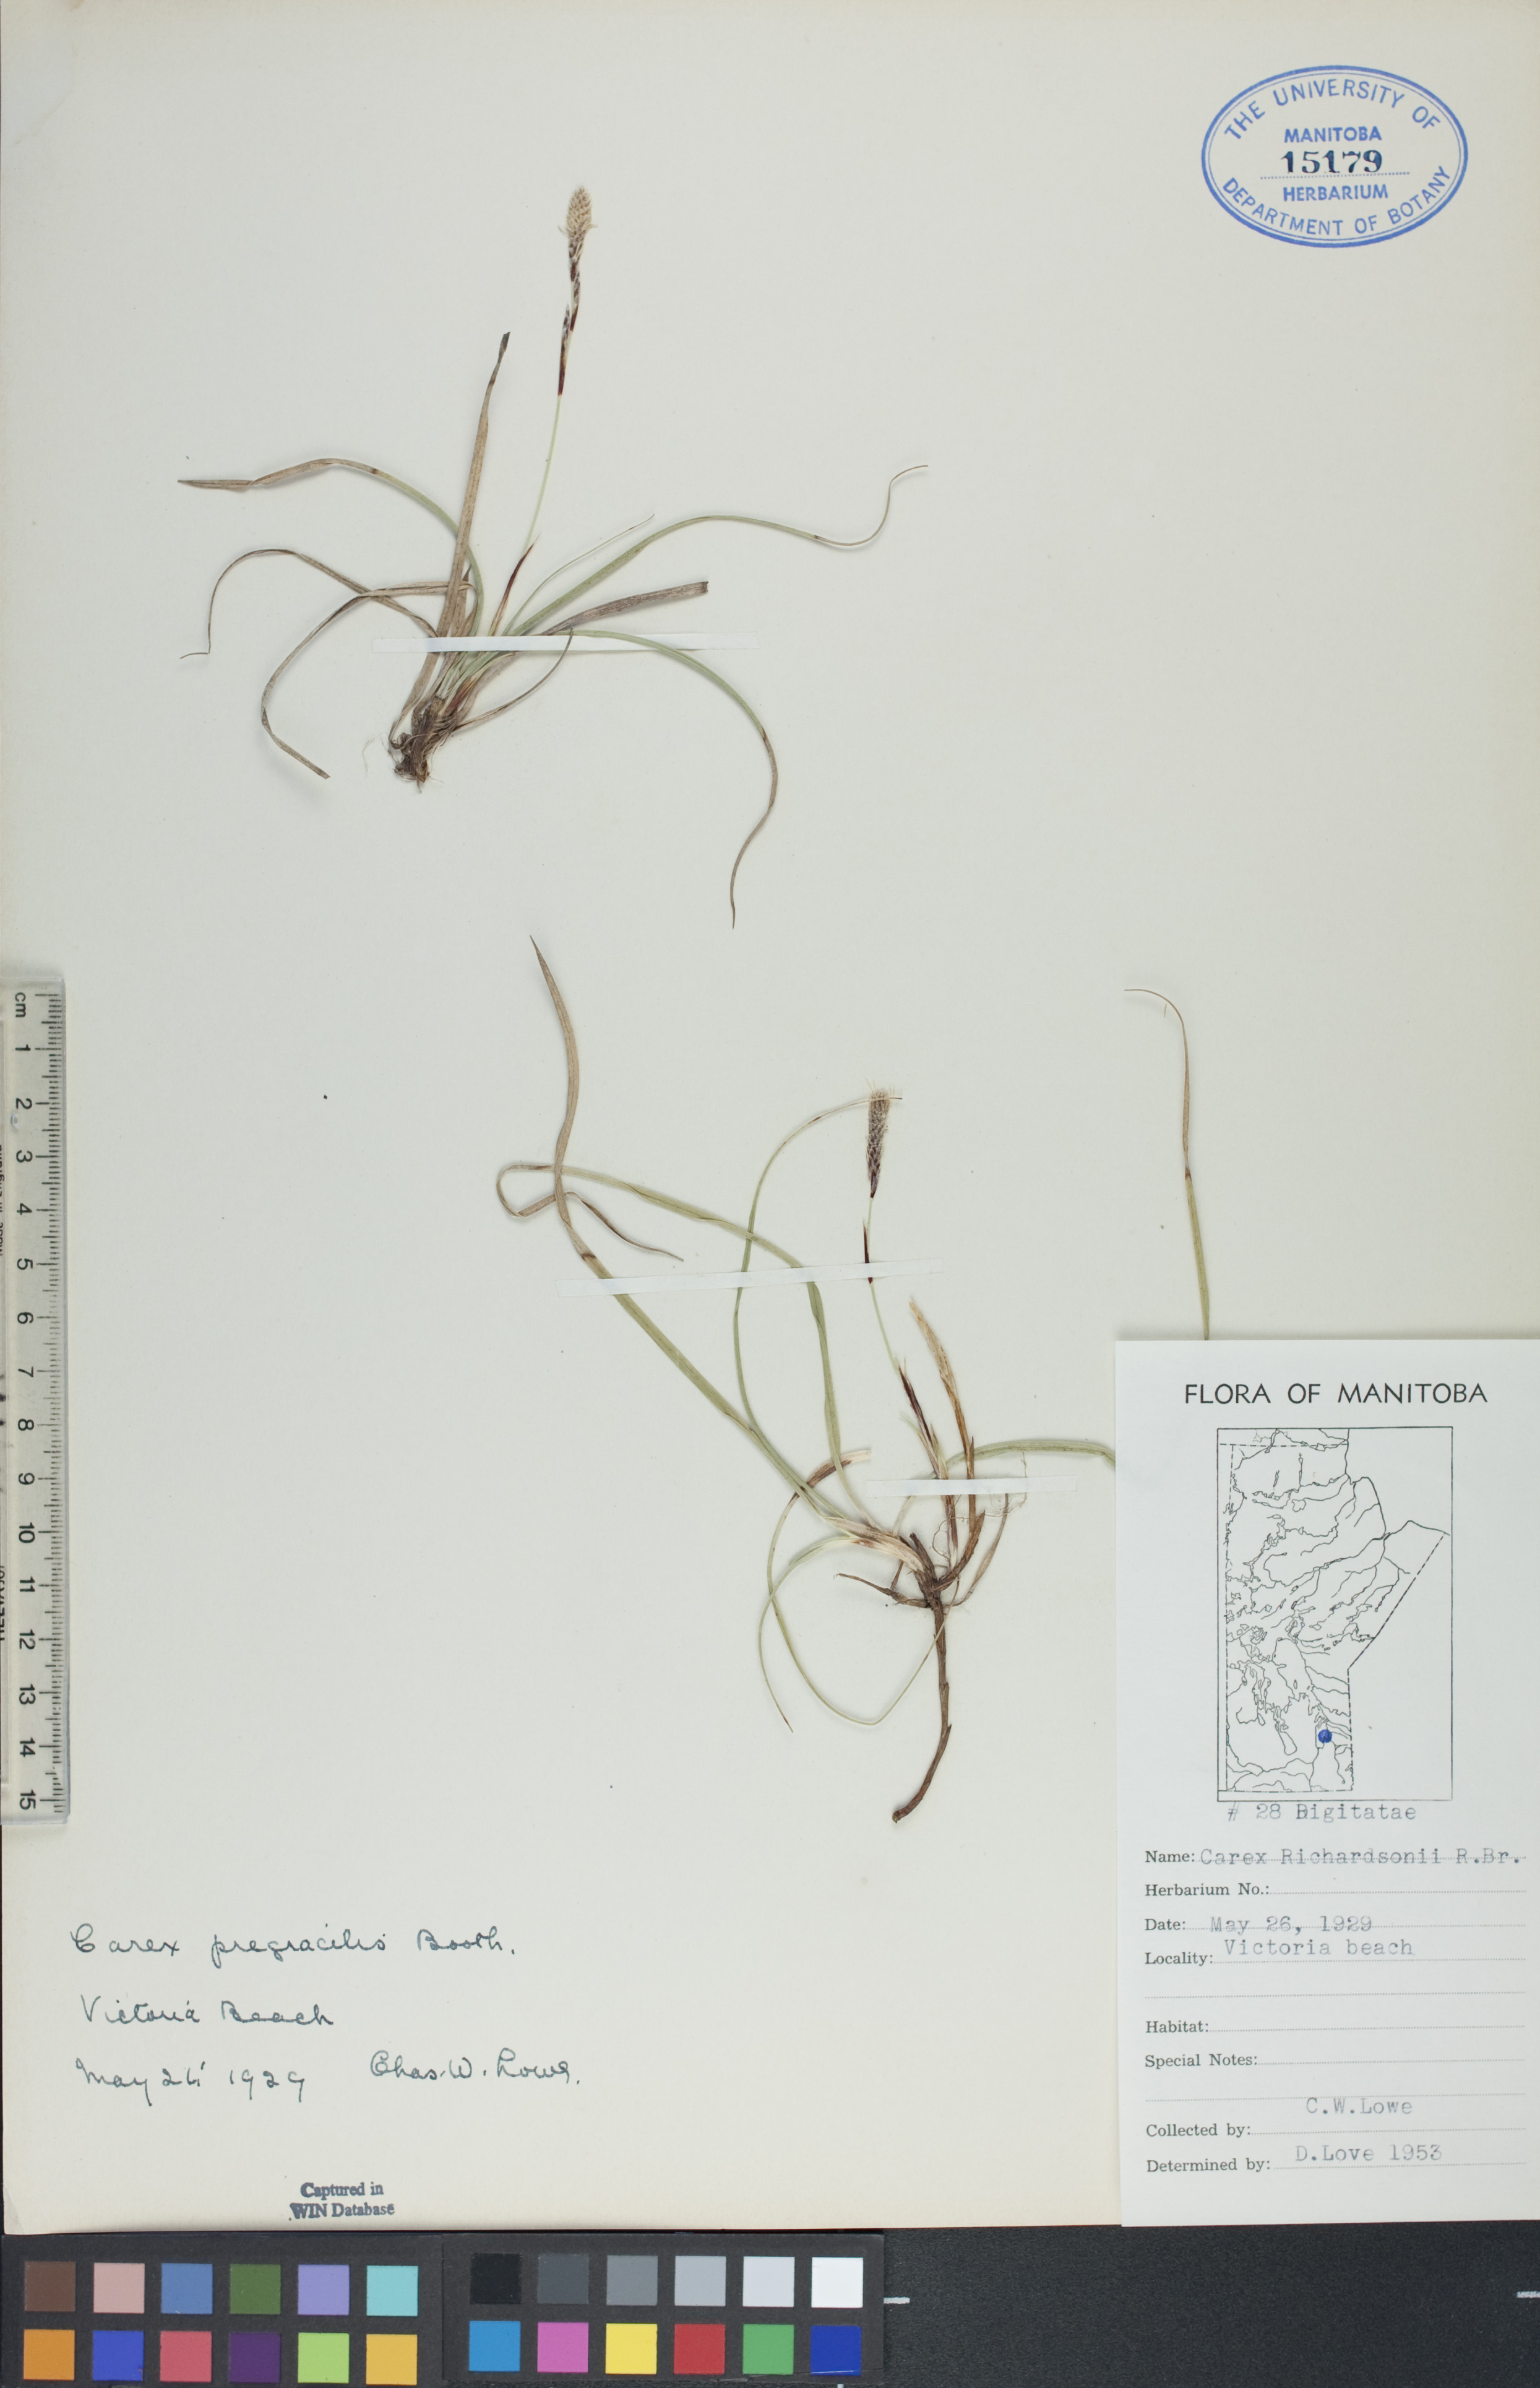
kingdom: Plantae
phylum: Tracheophyta
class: Liliopsida
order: Poales
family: Cyperaceae
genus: Carex
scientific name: Carex richardsonii
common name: Prairie hummock sedge
